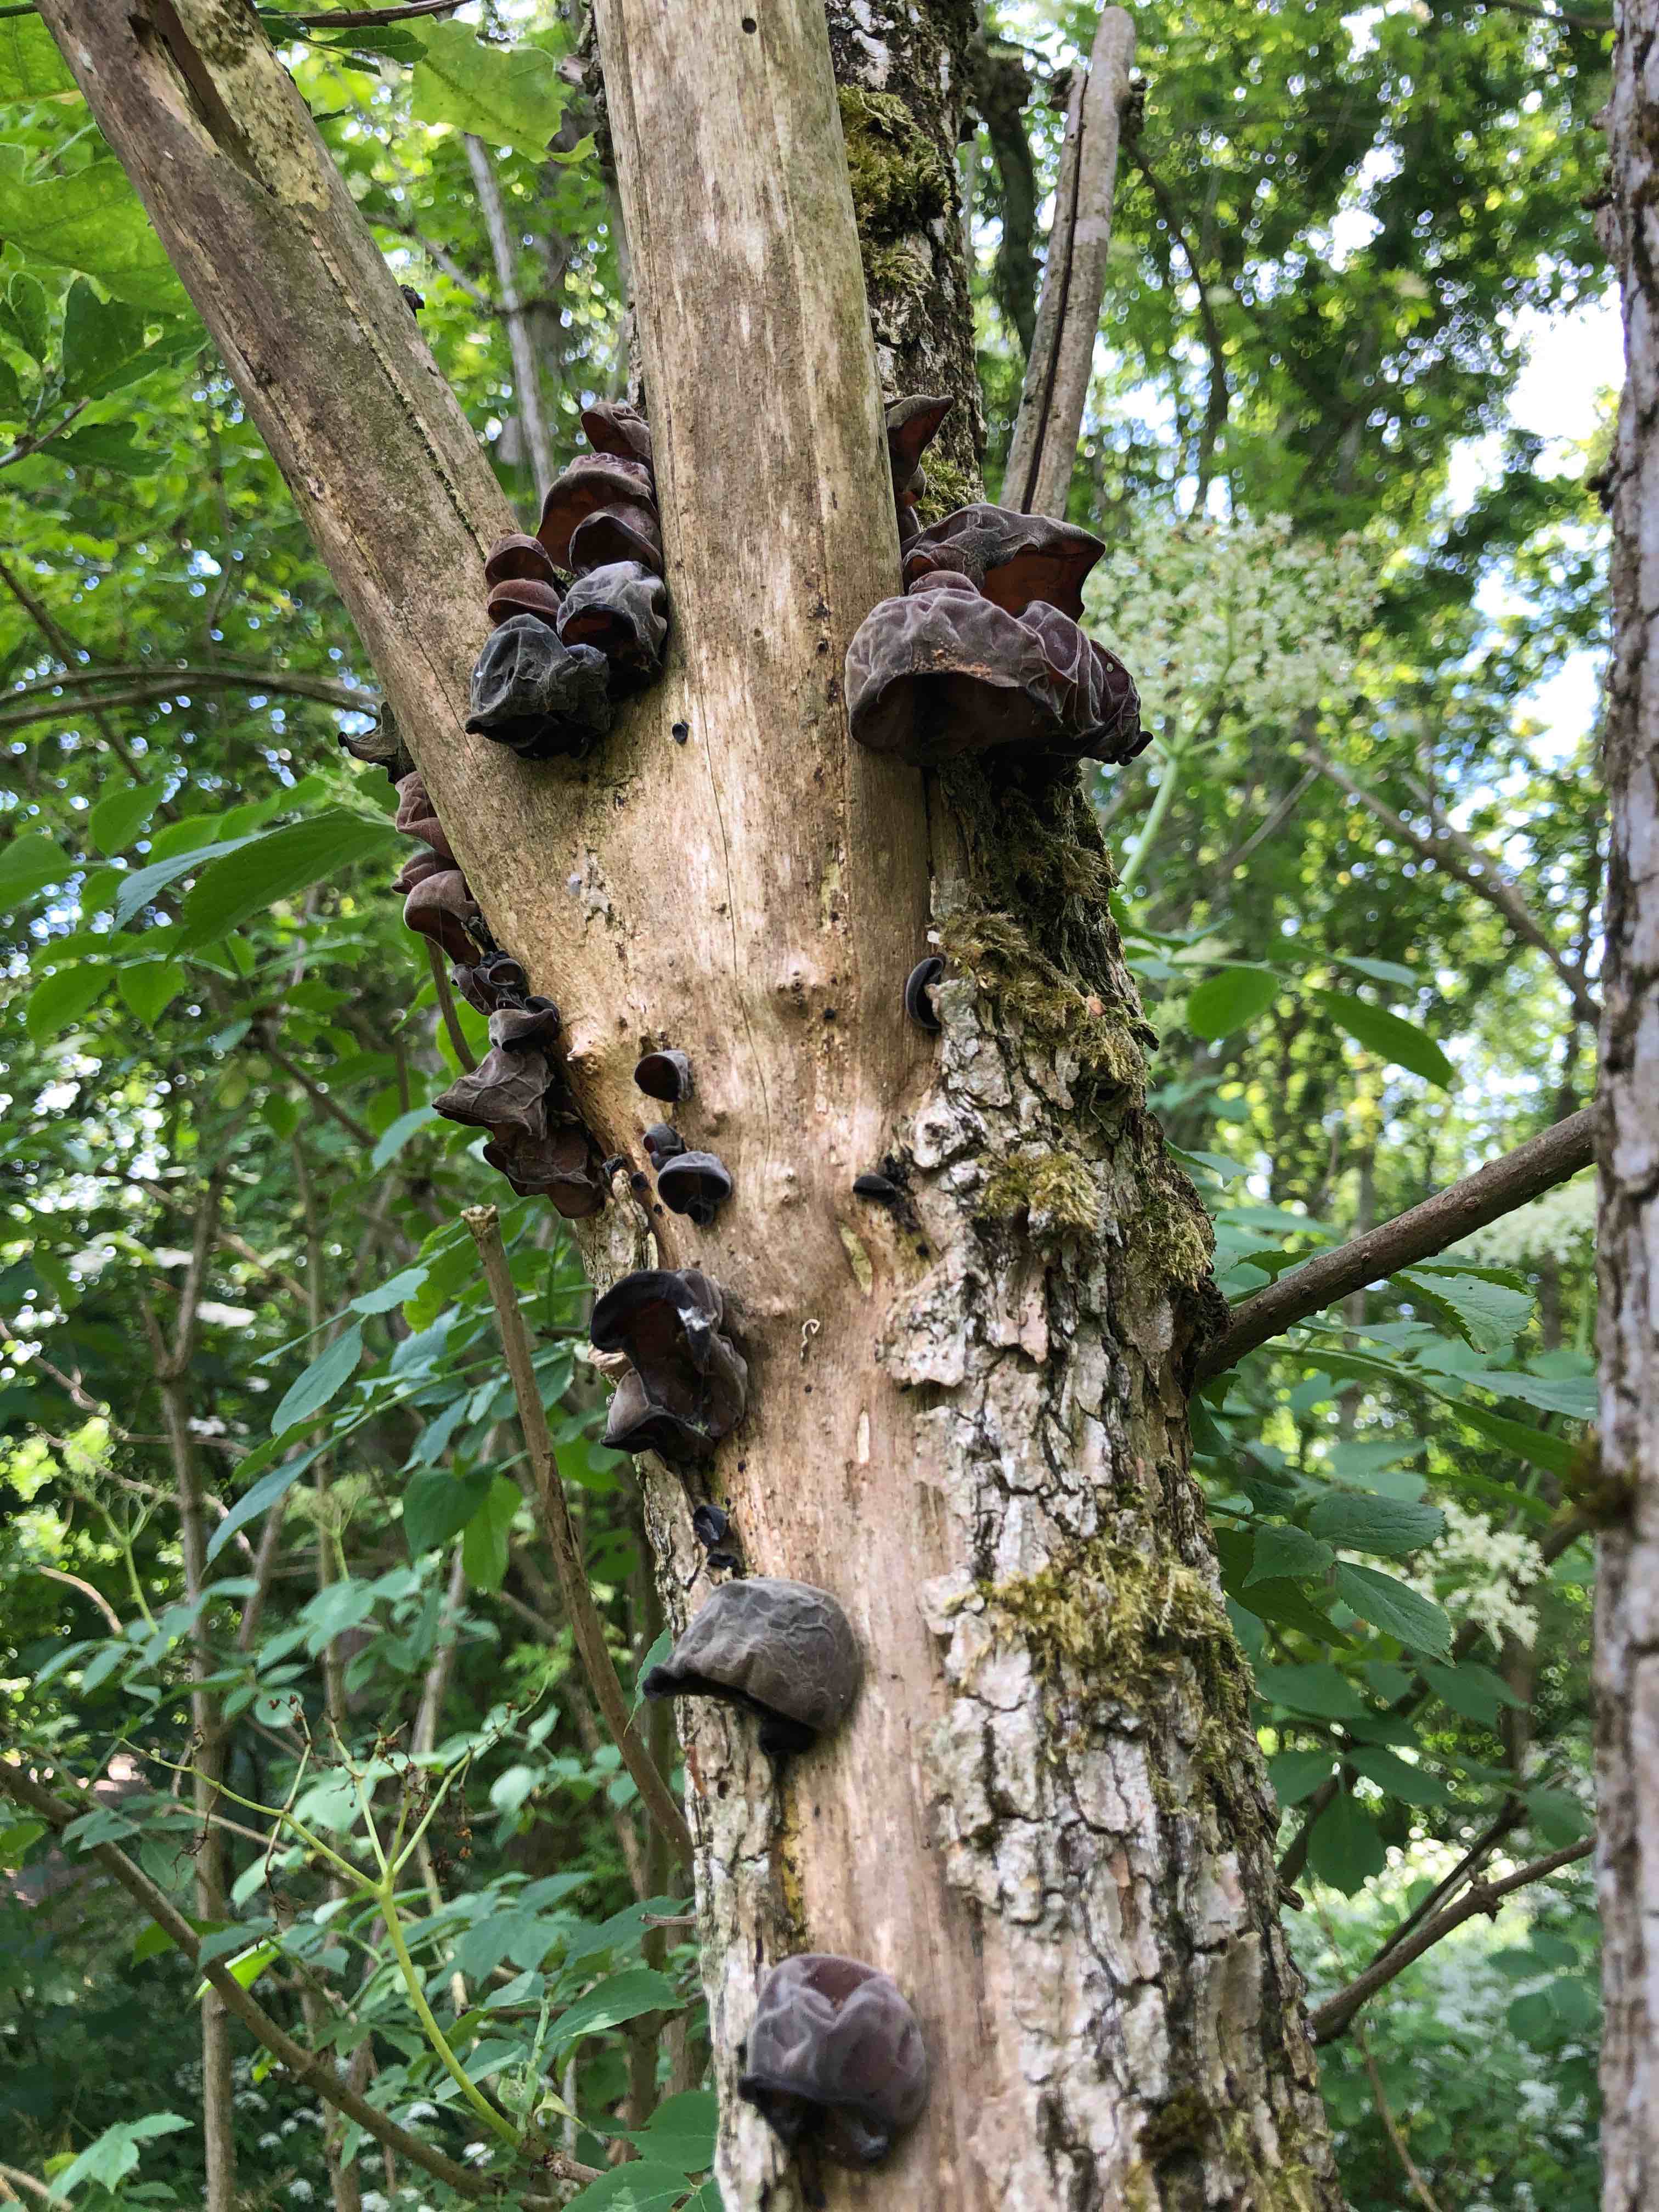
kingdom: Fungi
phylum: Basidiomycota
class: Agaricomycetes
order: Auriculariales
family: Auriculariaceae
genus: Auricularia
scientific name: Auricularia auricula-judae
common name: almindelig judasøre
